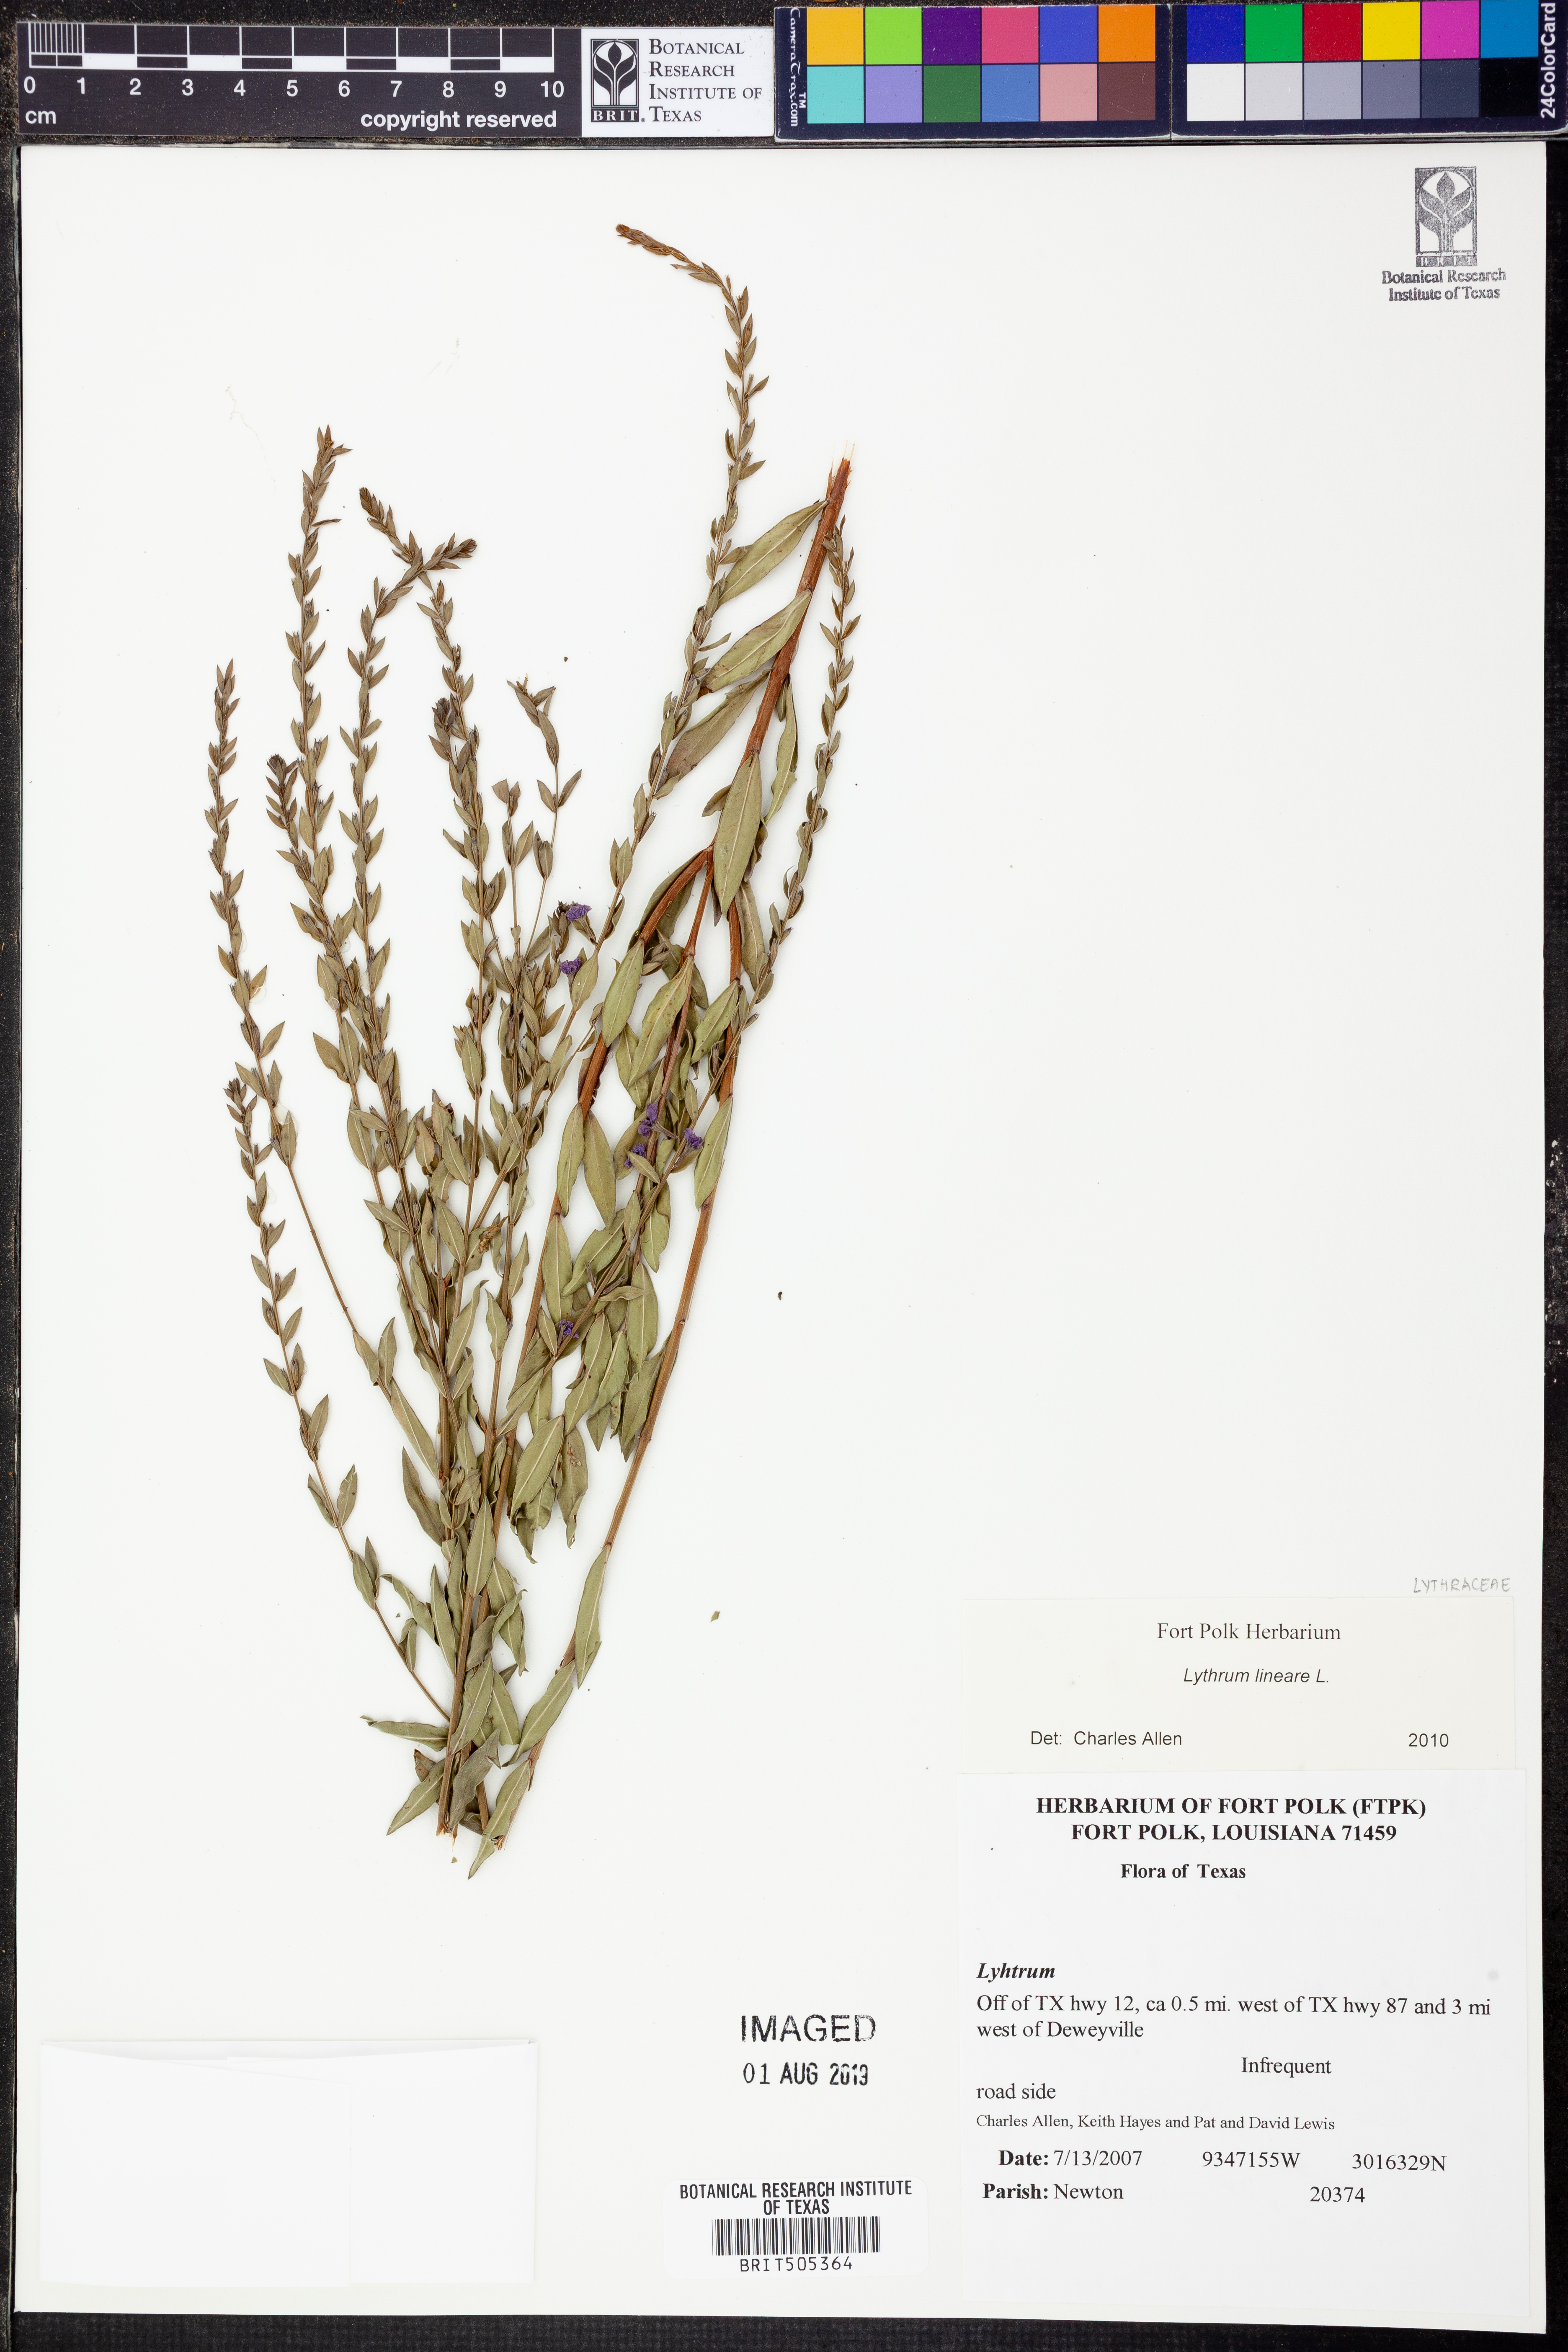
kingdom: Plantae
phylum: Tracheophyta
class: Magnoliopsida
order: Myrtales
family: Lythraceae
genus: Lythrum
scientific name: Lythrum lineare
